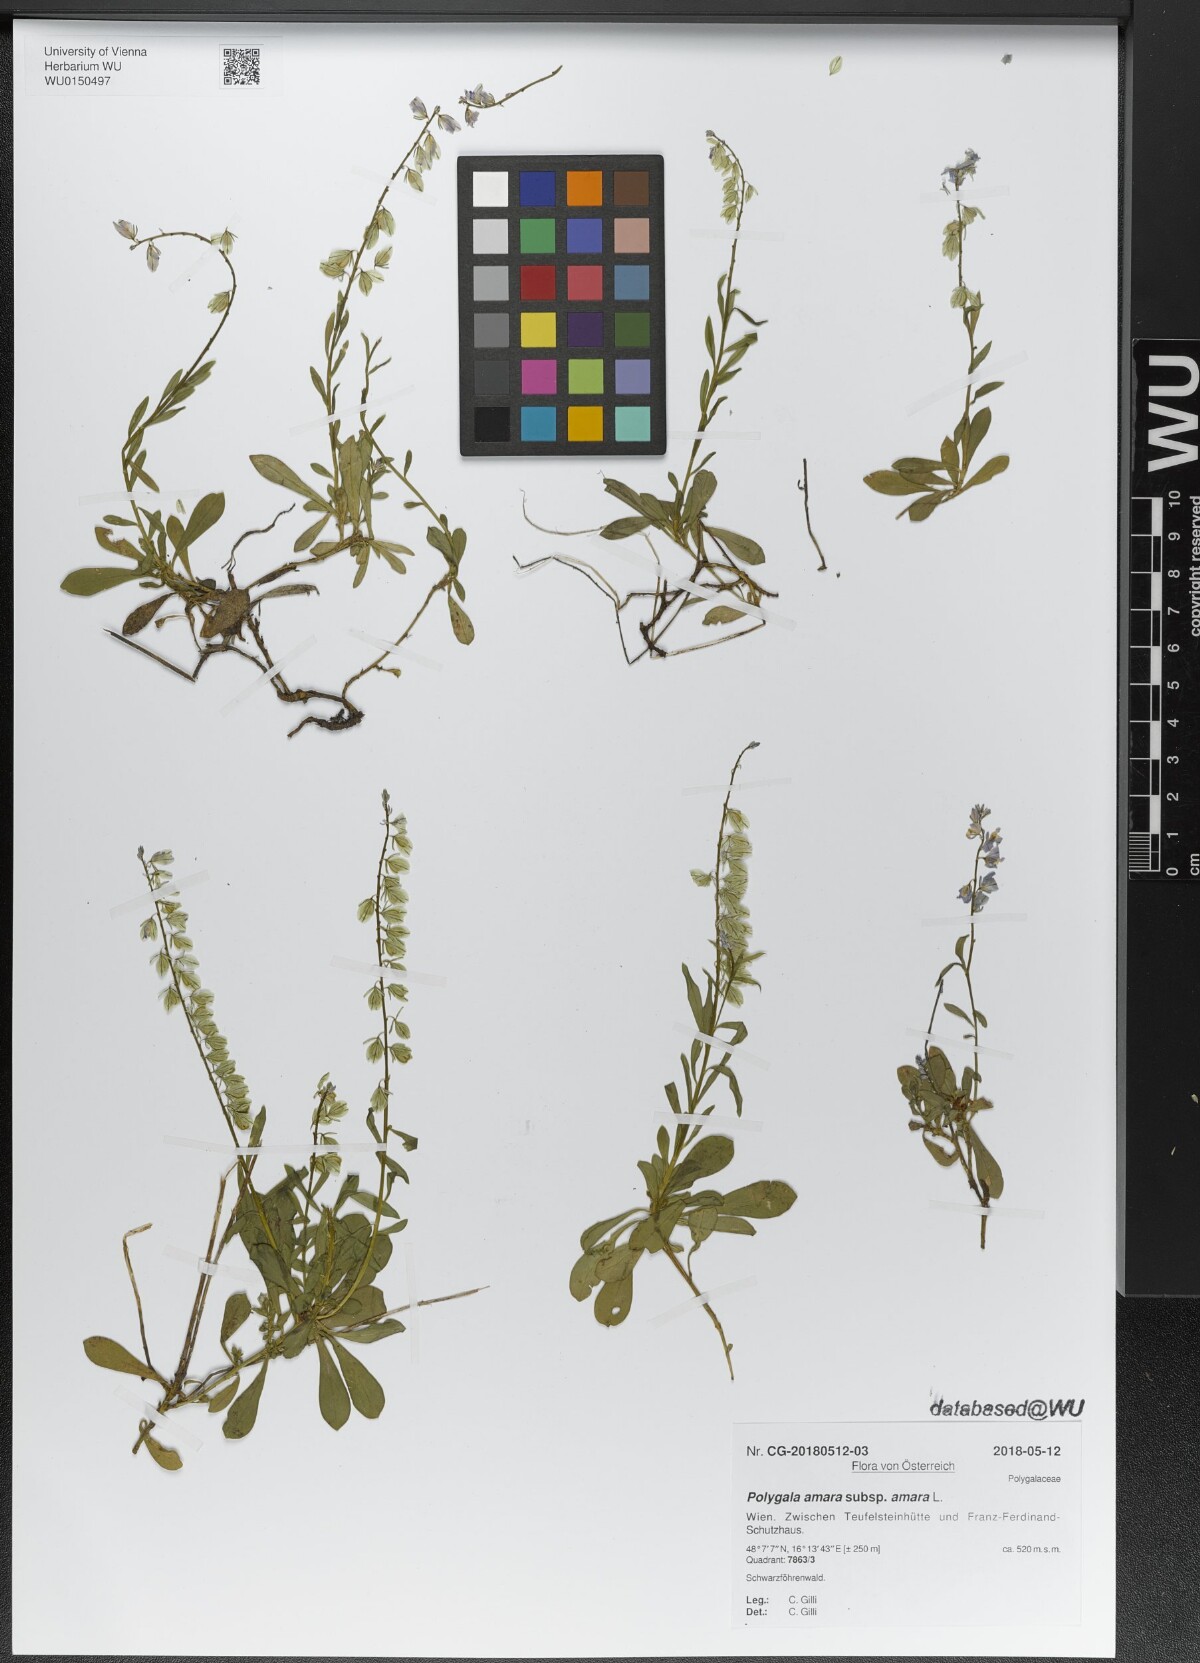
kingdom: Plantae
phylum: Tracheophyta
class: Magnoliopsida
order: Fabales
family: Polygalaceae
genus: Polygala
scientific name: Polygala amara
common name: Milkwort
